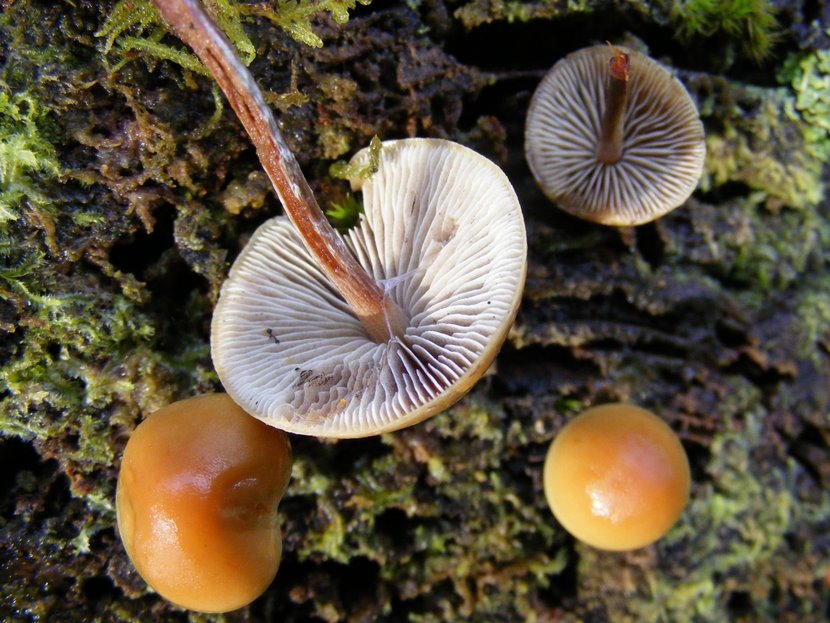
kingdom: Fungi
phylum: Basidiomycota
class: Agaricomycetes
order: Agaricales
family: Strophariaceae
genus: Hypholoma
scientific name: Hypholoma marginatum
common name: enlig svovlhat
